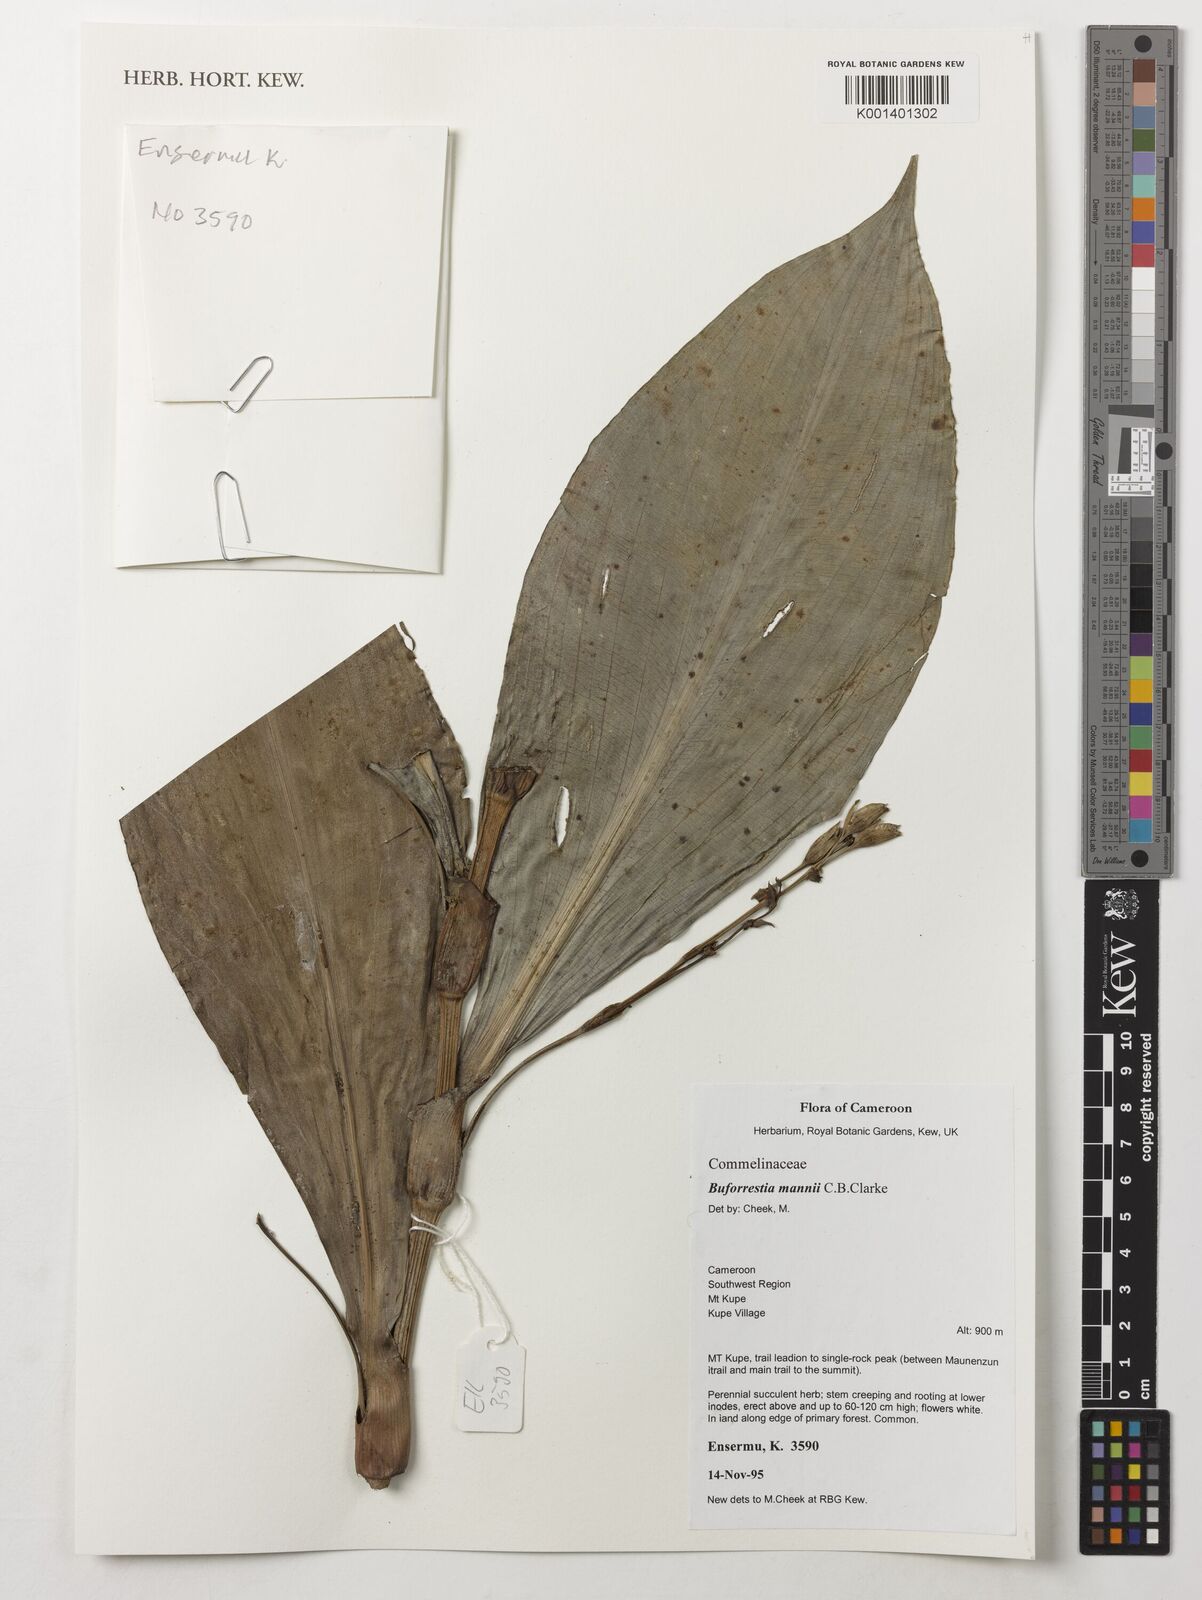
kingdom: Plantae
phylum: Tracheophyta
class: Liliopsida
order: Commelinales
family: Commelinaceae
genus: Buforrestia
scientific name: Buforrestia mannii
